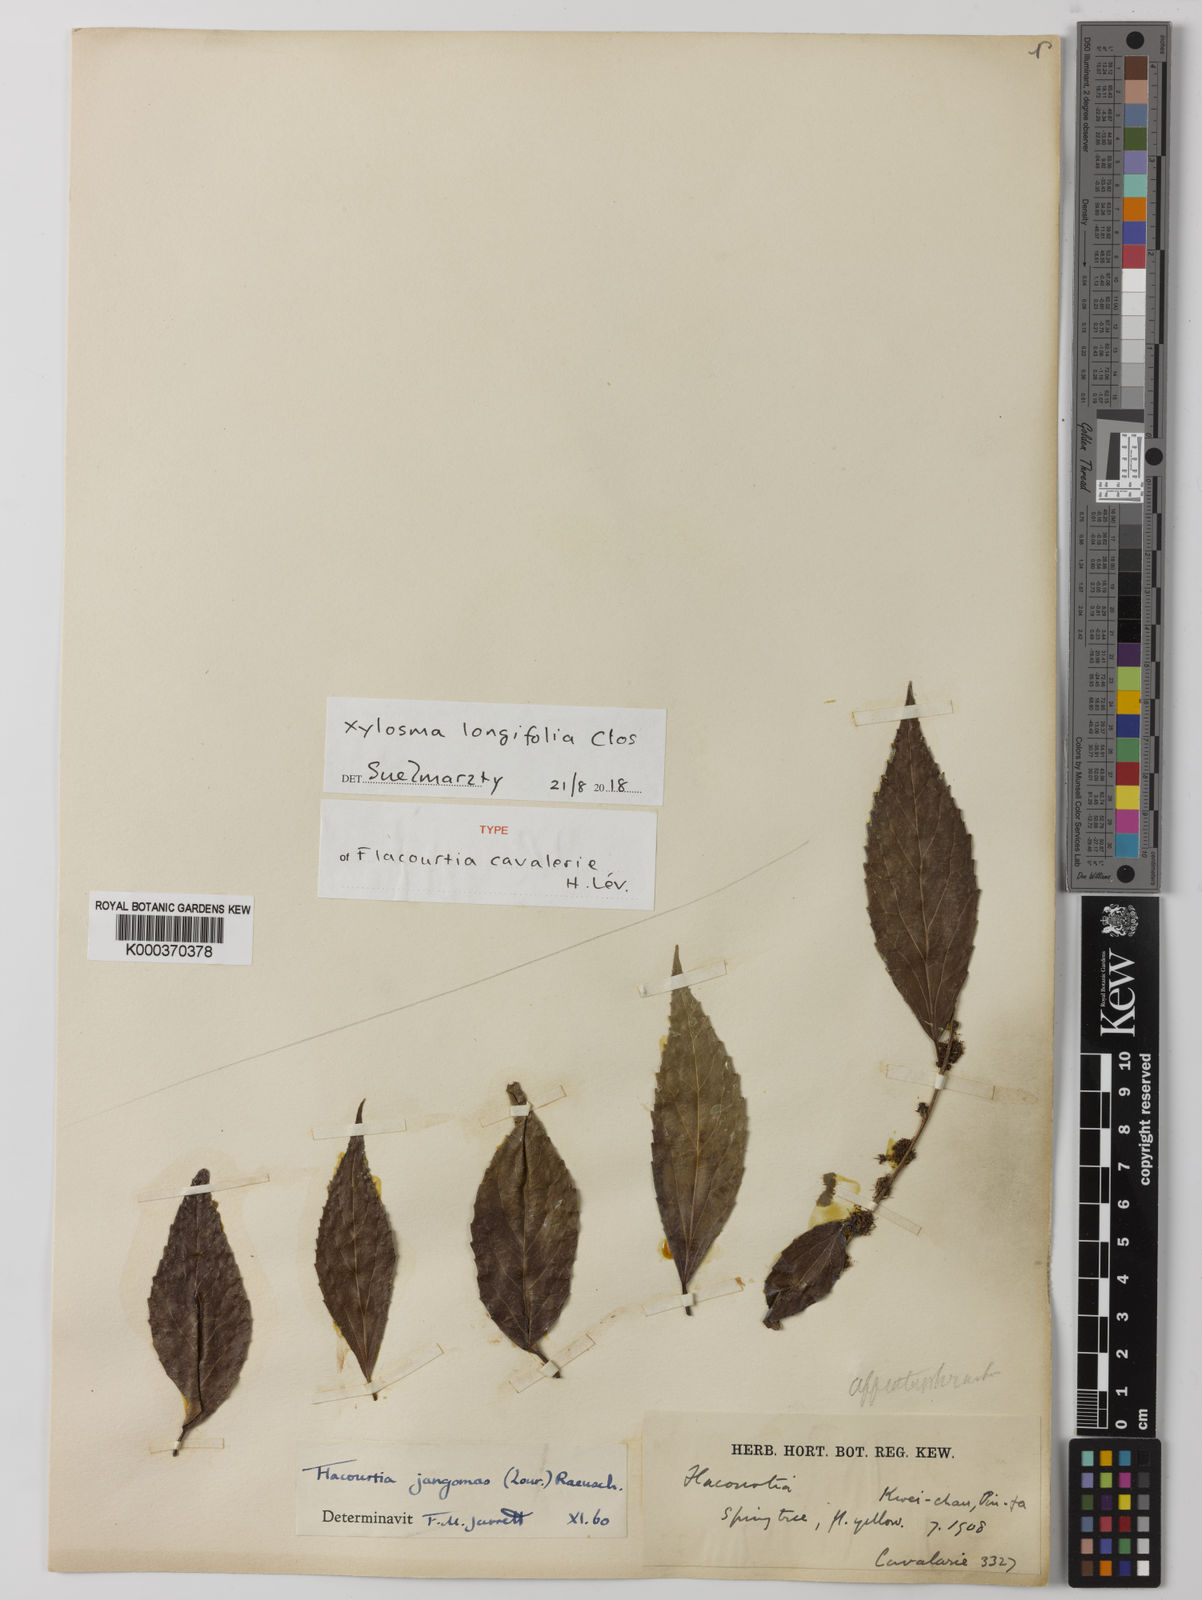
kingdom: Plantae
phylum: Tracheophyta
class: Magnoliopsida
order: Malpighiales
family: Salicaceae
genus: Xylosma
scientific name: Xylosma longifolia
